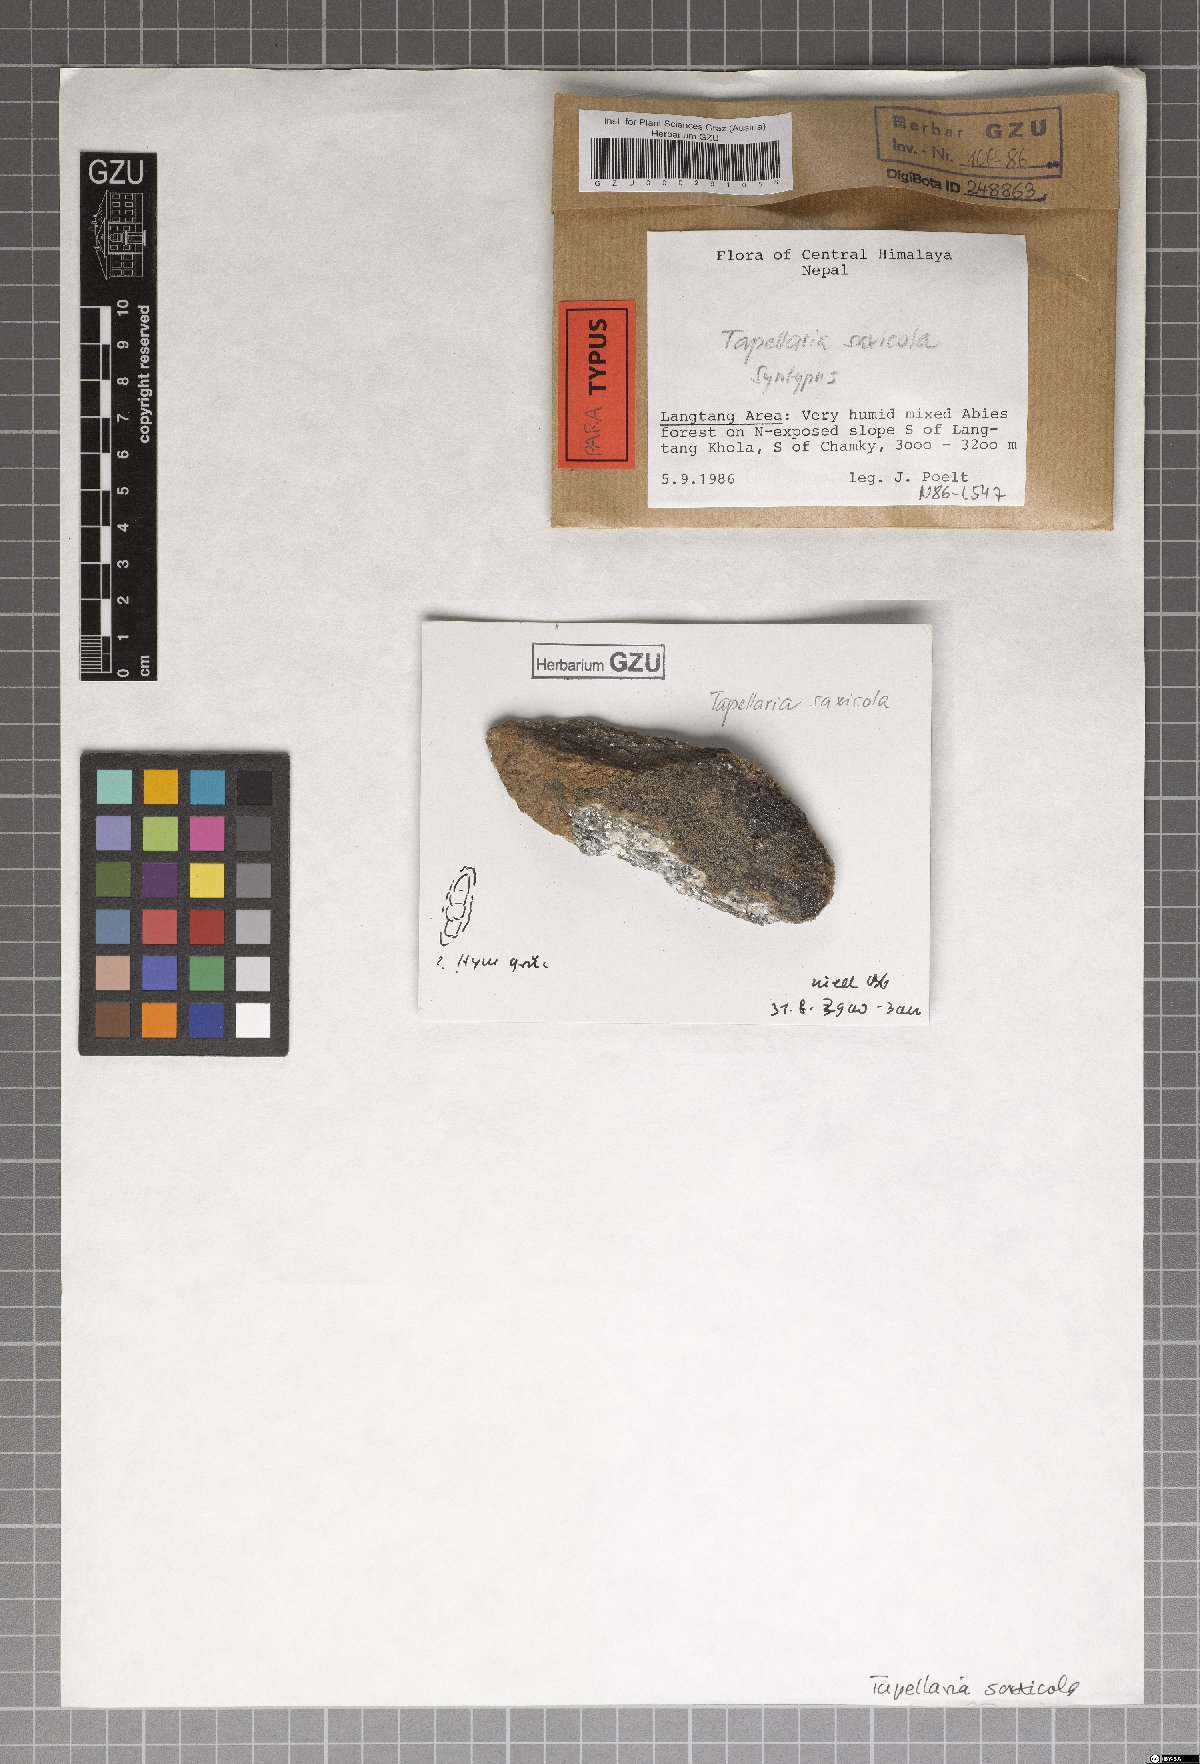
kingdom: Fungi
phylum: Ascomycota
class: Lecanoromycetes
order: Lecanorales
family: Byssolomataceae
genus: Tapellaria
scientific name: Tapellaria saxicola
